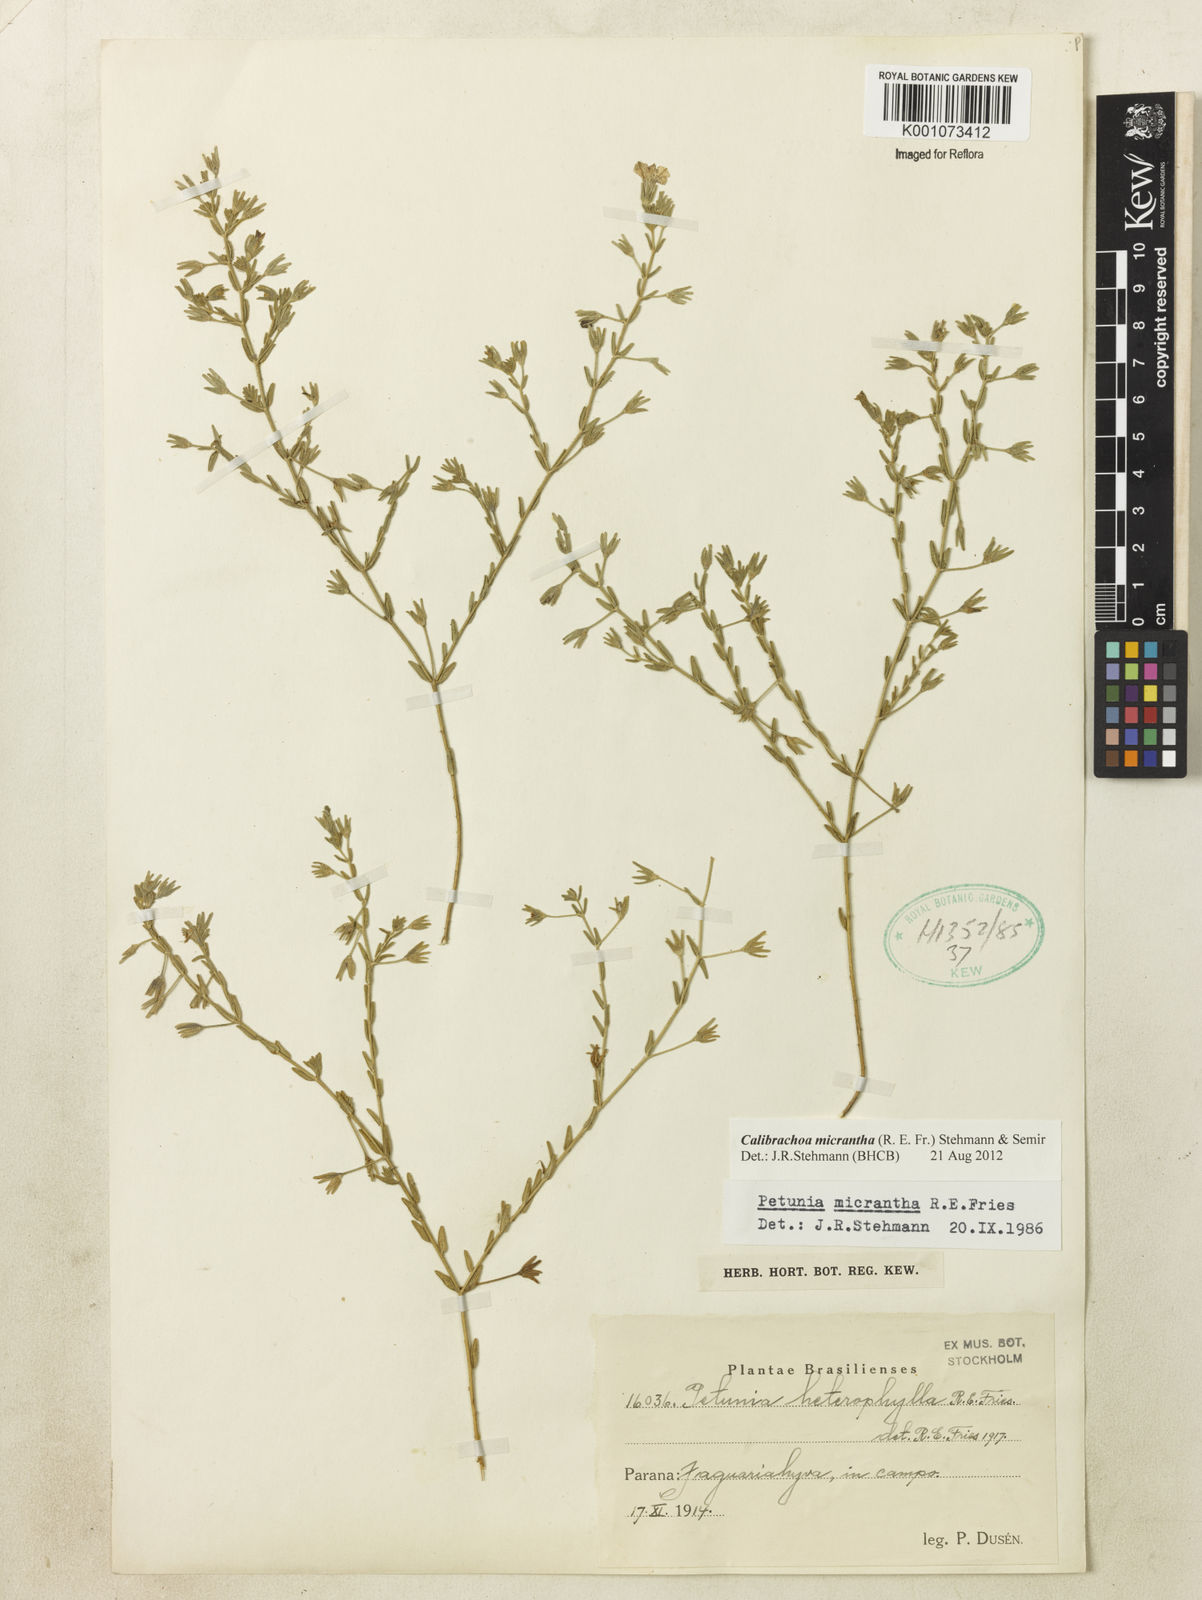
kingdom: Plantae
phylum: Tracheophyta
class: Magnoliopsida
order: Solanales
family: Solanaceae
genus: Calibrachoa
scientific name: Calibrachoa micrantha
